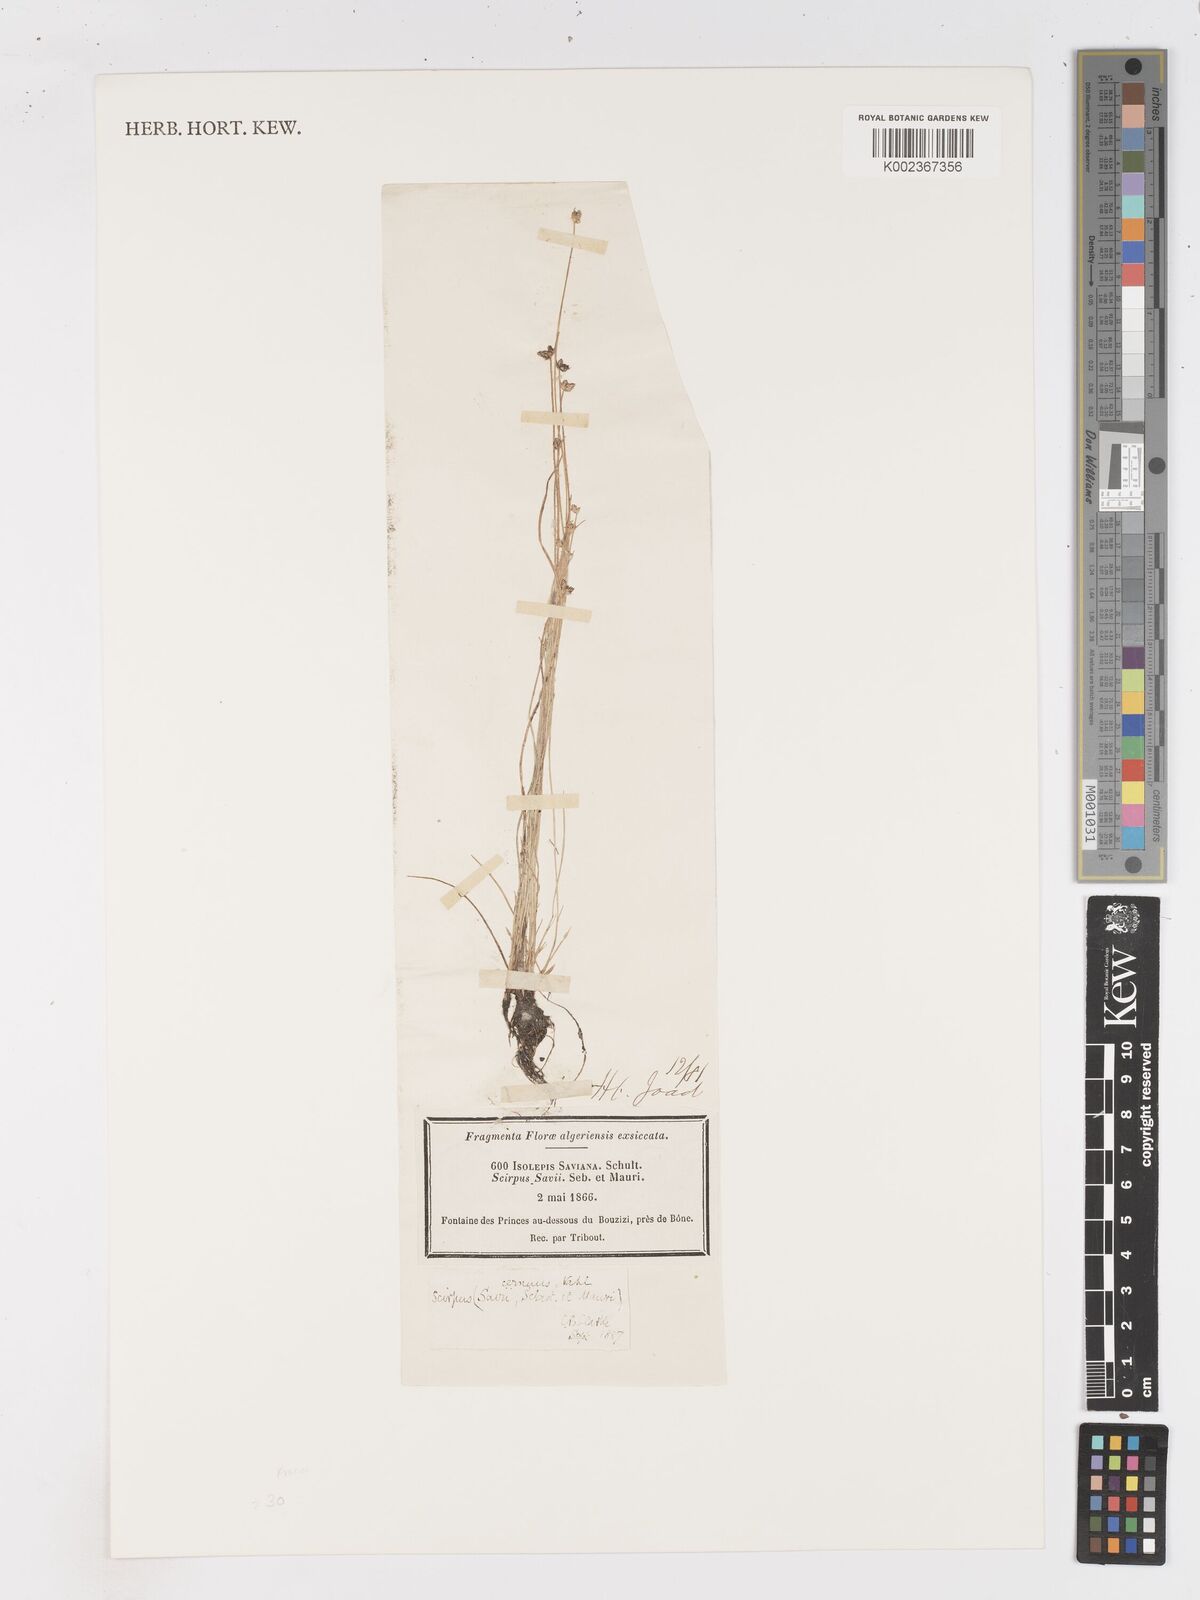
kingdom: Plantae
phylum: Tracheophyta
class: Liliopsida
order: Poales
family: Cyperaceae
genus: Isolepis
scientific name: Isolepis cernua
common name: Slender club-rush
